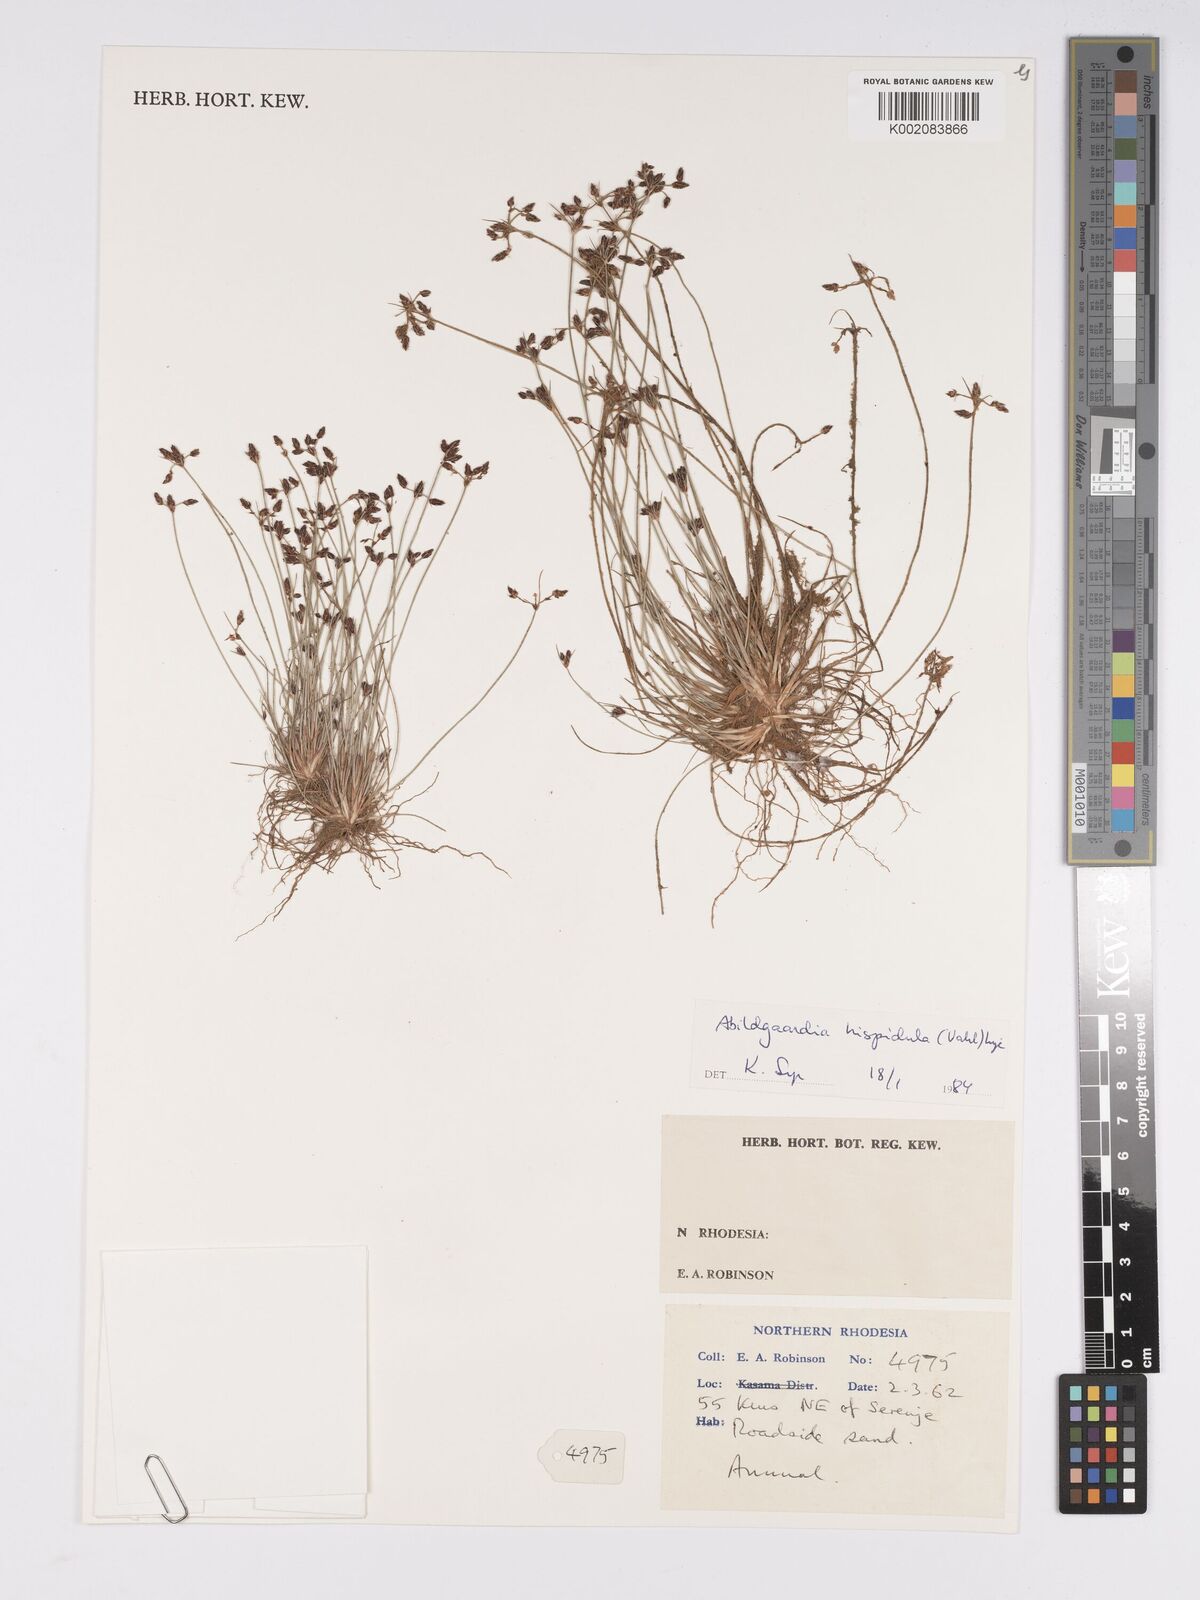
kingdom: Plantae
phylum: Tracheophyta
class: Liliopsida
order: Poales
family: Cyperaceae
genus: Bulbostylis
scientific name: Bulbostylis hispidula
